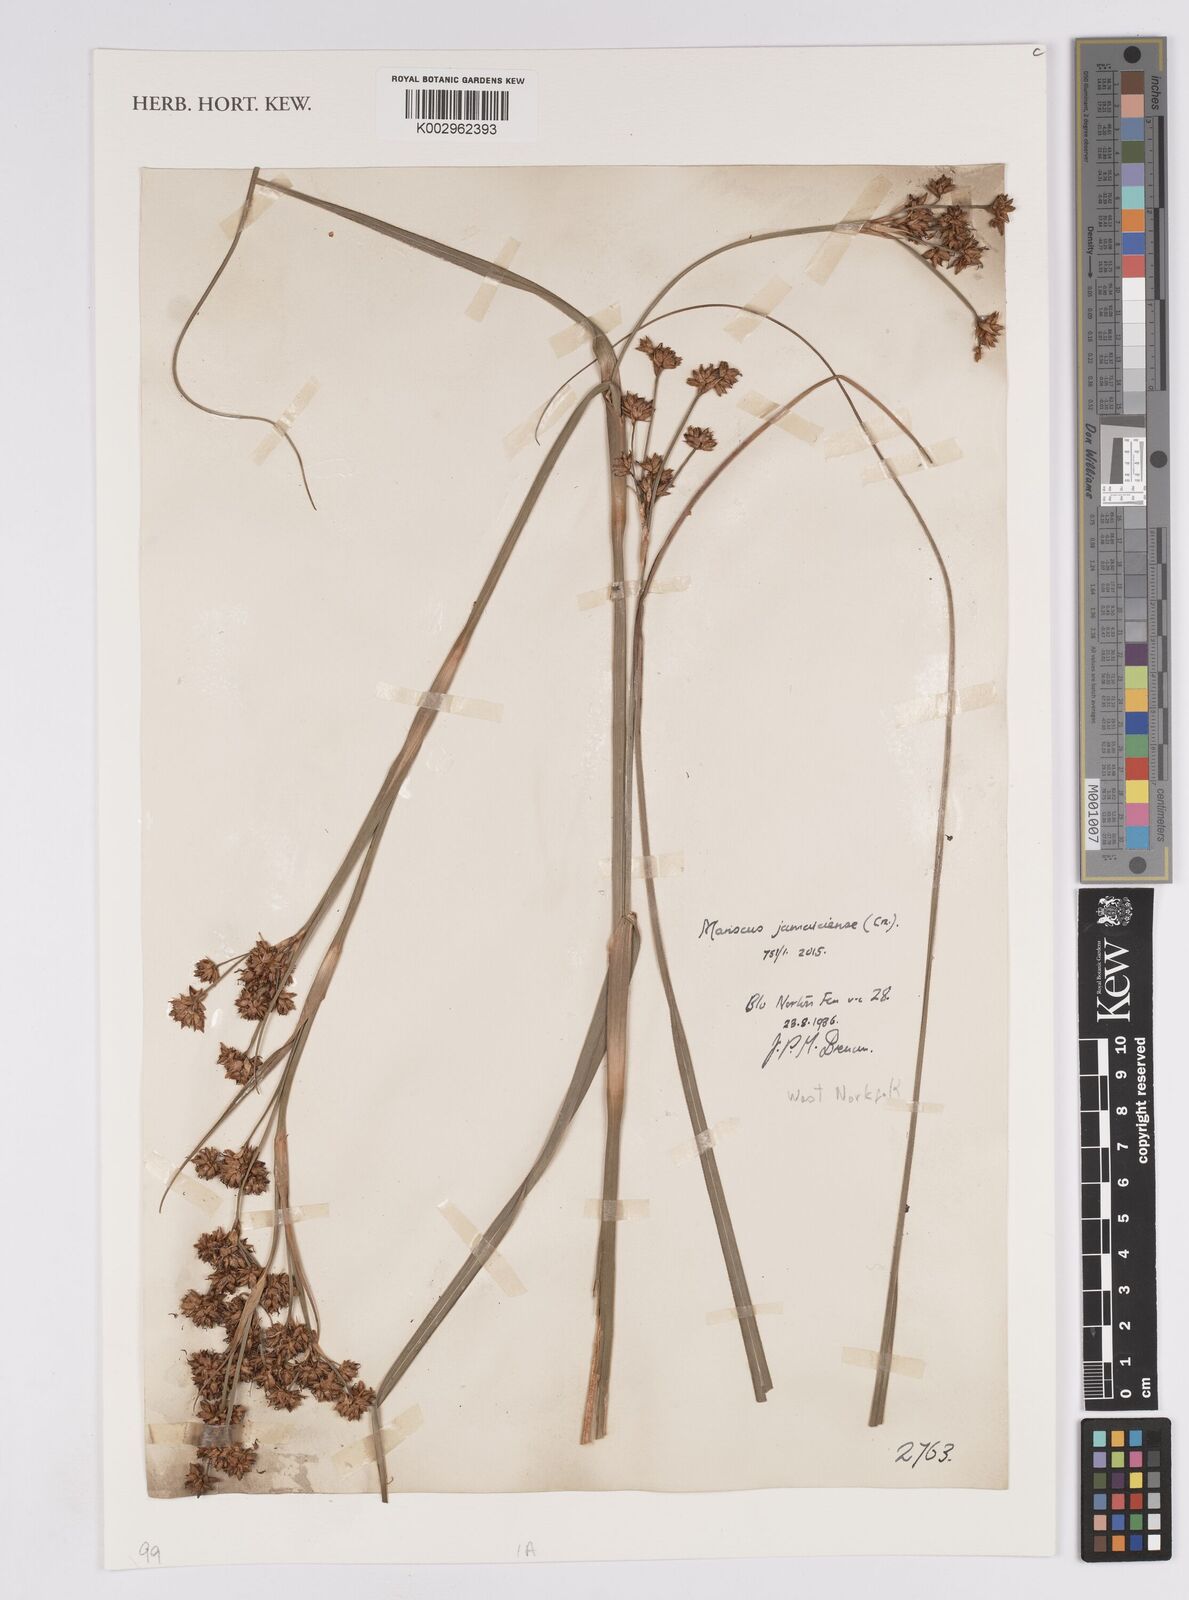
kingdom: Plantae
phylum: Tracheophyta
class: Liliopsida
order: Poales
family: Cyperaceae
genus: Cladium
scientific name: Cladium mariscus
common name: Great fen-sedge
